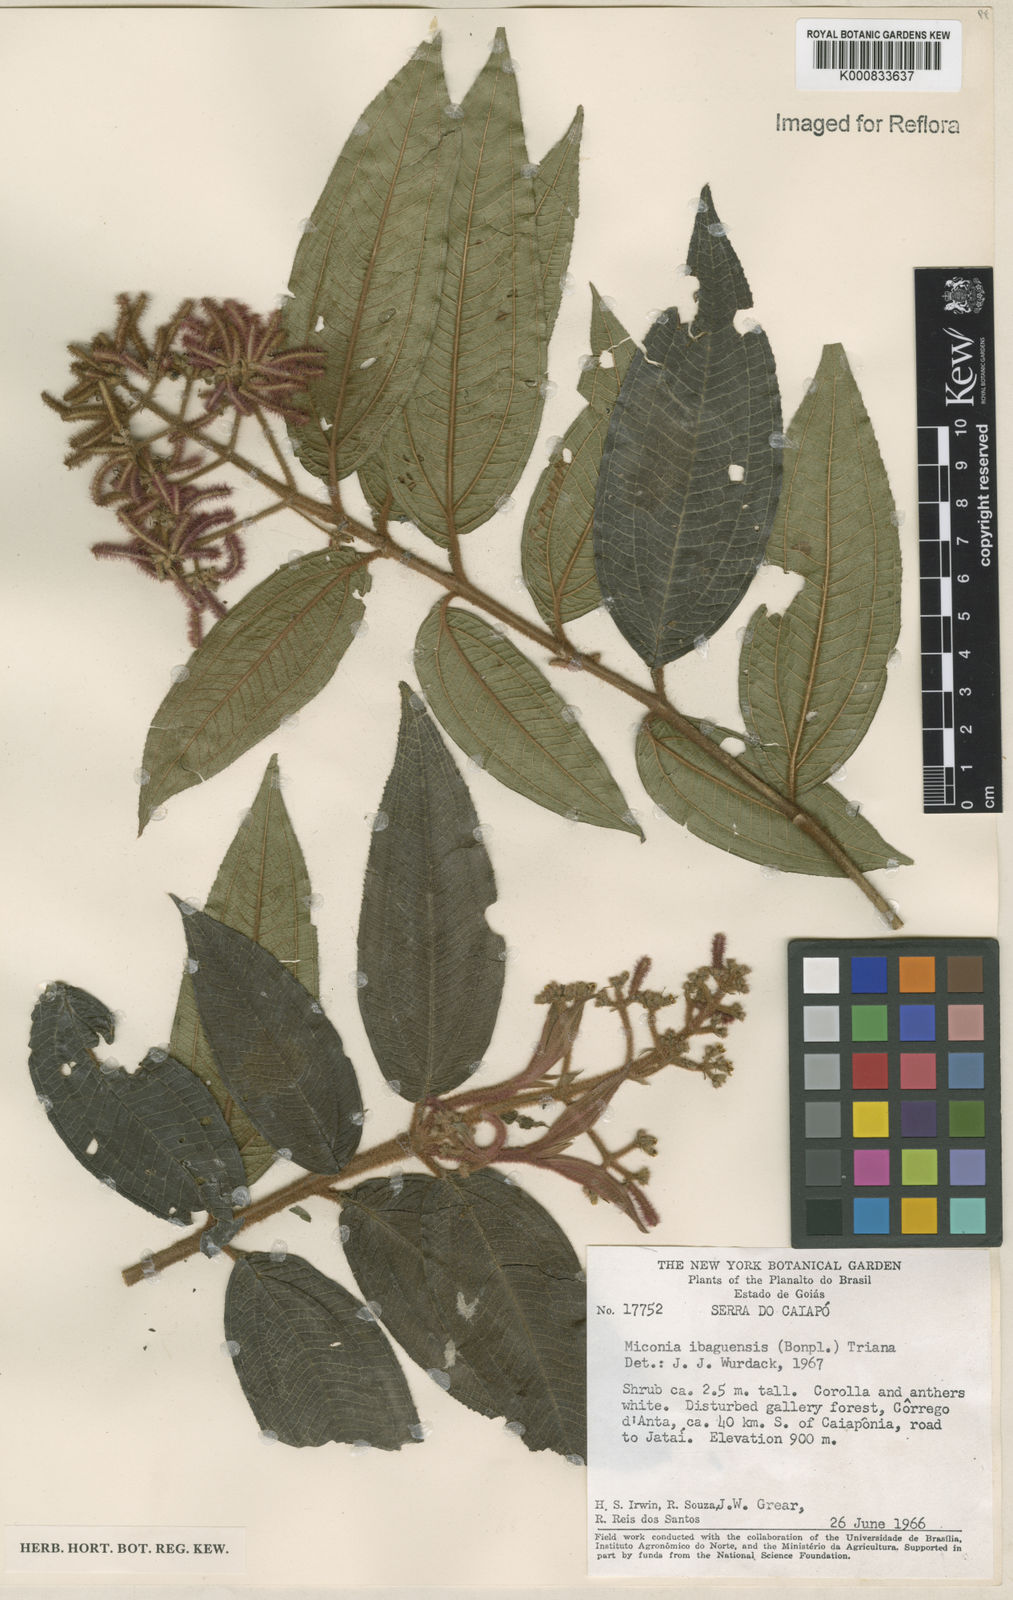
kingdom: Plantae
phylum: Tracheophyta
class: Magnoliopsida
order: Myrtales
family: Melastomataceae
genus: Miconia
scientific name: Miconia ibaguensis
